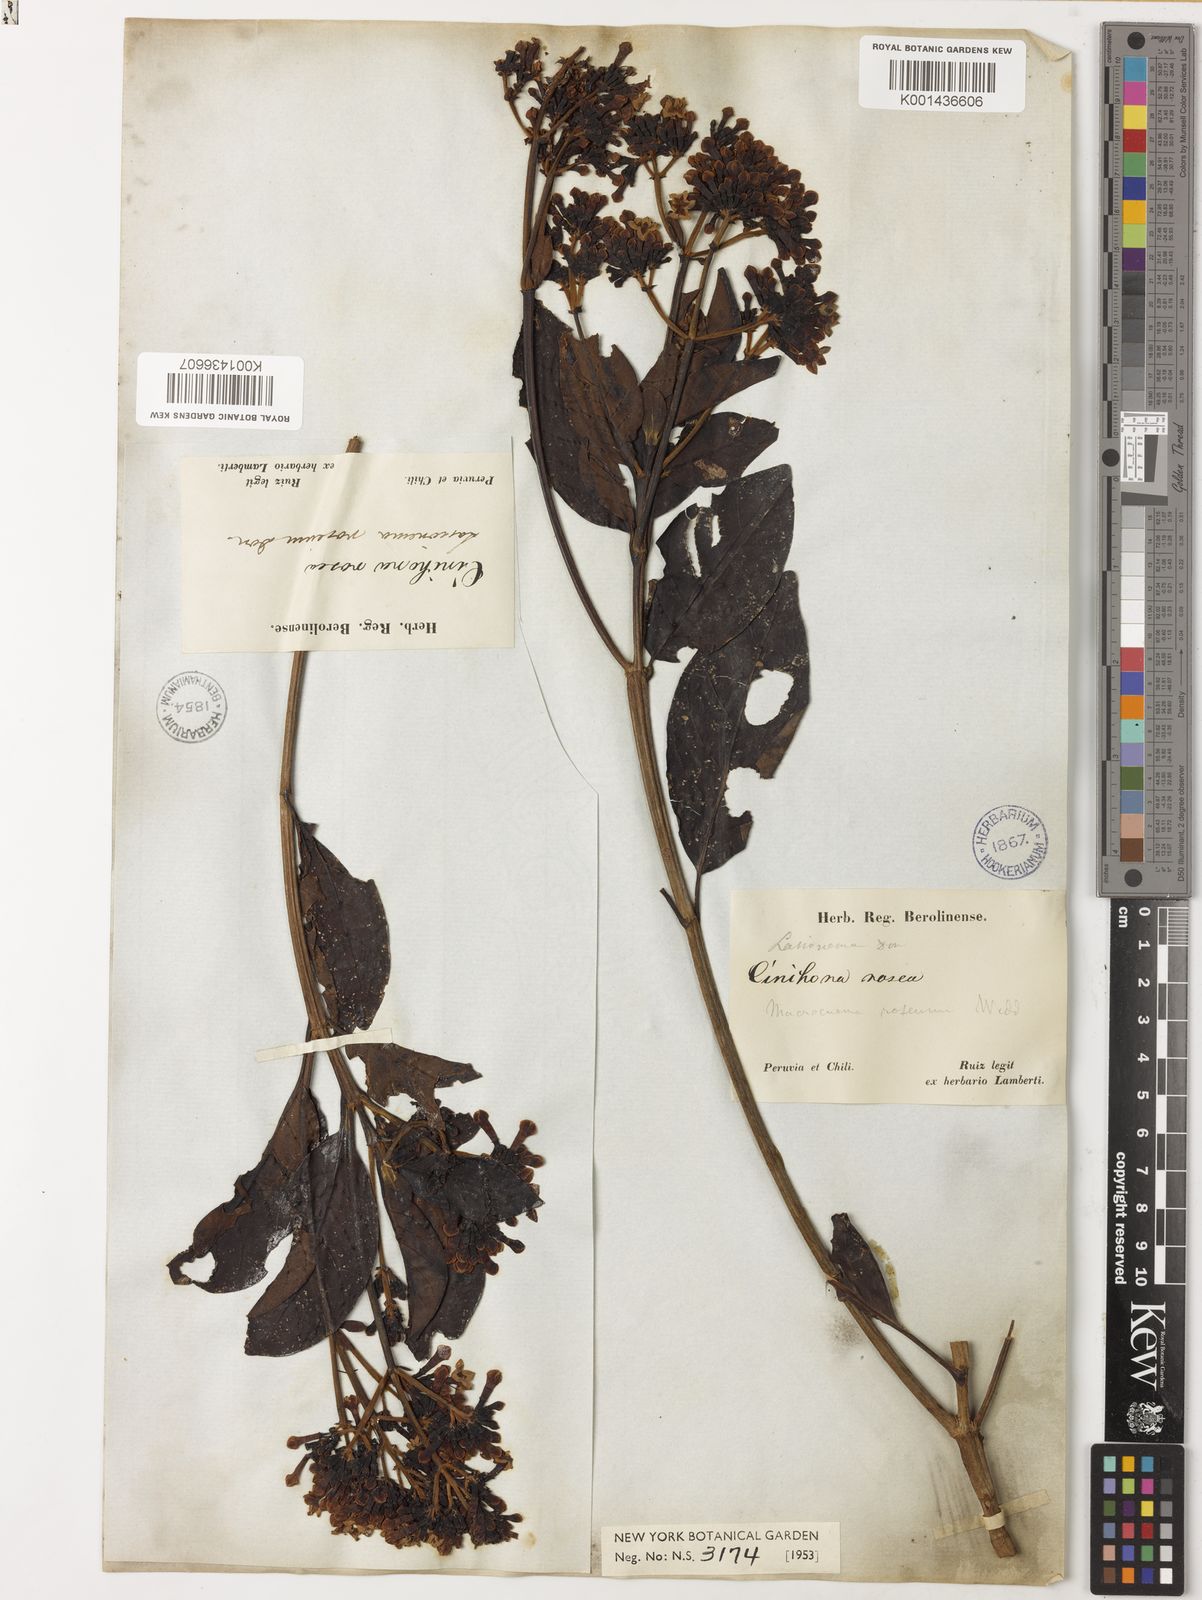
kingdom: Plantae
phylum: Tracheophyta
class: Magnoliopsida
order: Gentianales
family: Rubiaceae
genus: Macrocnemum
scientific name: Macrocnemum roseum
